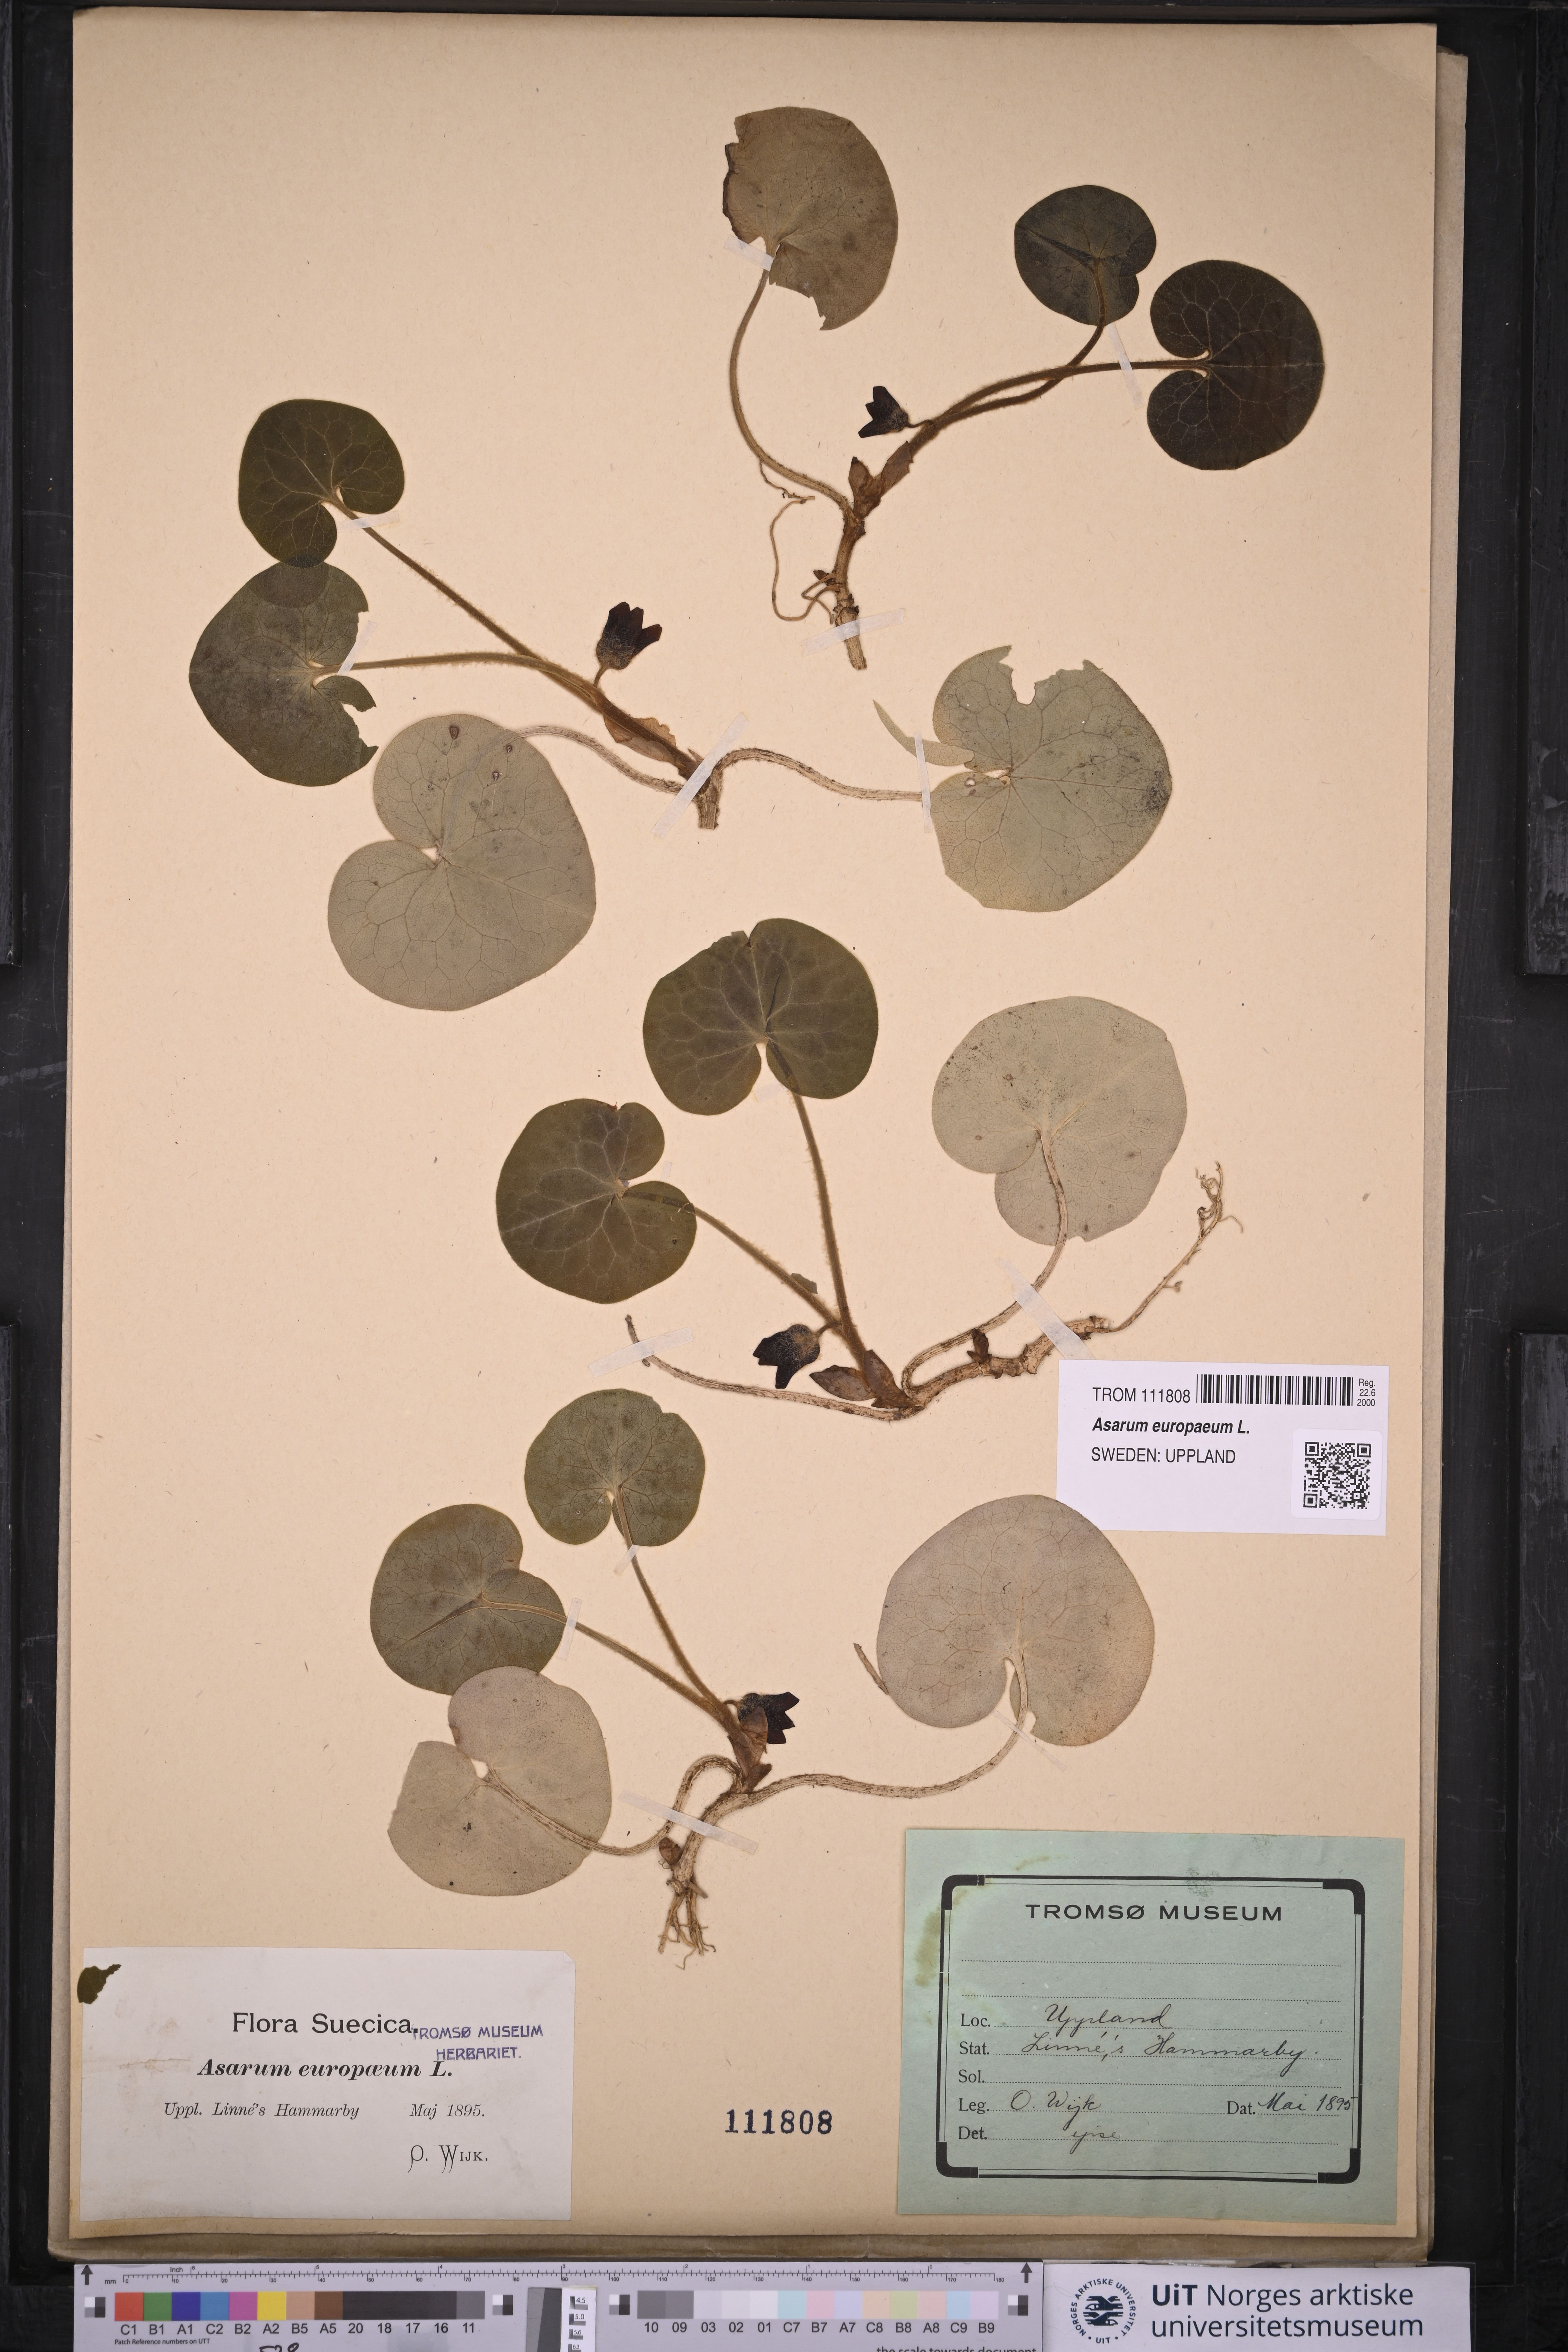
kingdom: Plantae
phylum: Tracheophyta
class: Magnoliopsida
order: Piperales
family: Aristolochiaceae
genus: Asarum
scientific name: Asarum europaeum
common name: Asarabacca
